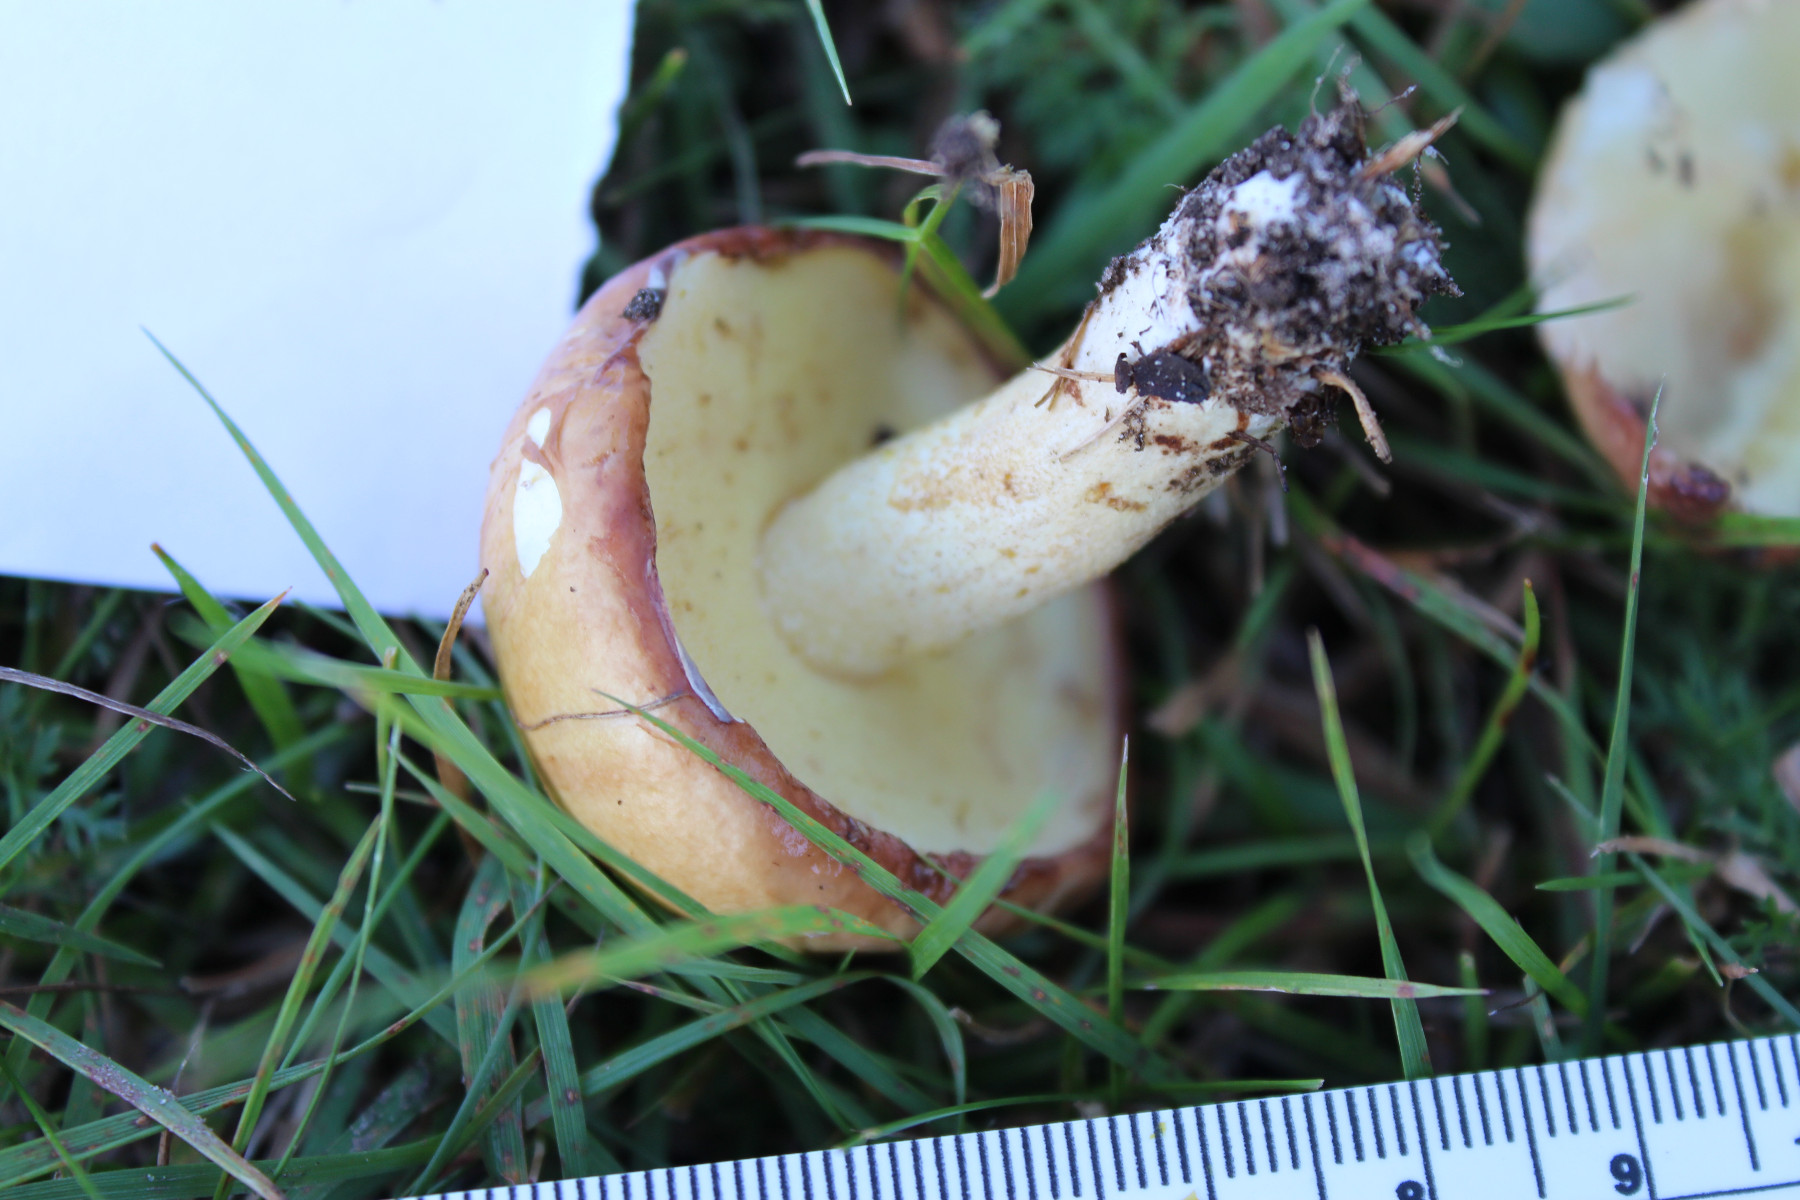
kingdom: Fungi
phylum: Basidiomycota
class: Agaricomycetes
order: Boletales
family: Suillaceae
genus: Suillus
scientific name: Suillus granulatus
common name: kornet slimrørhat
